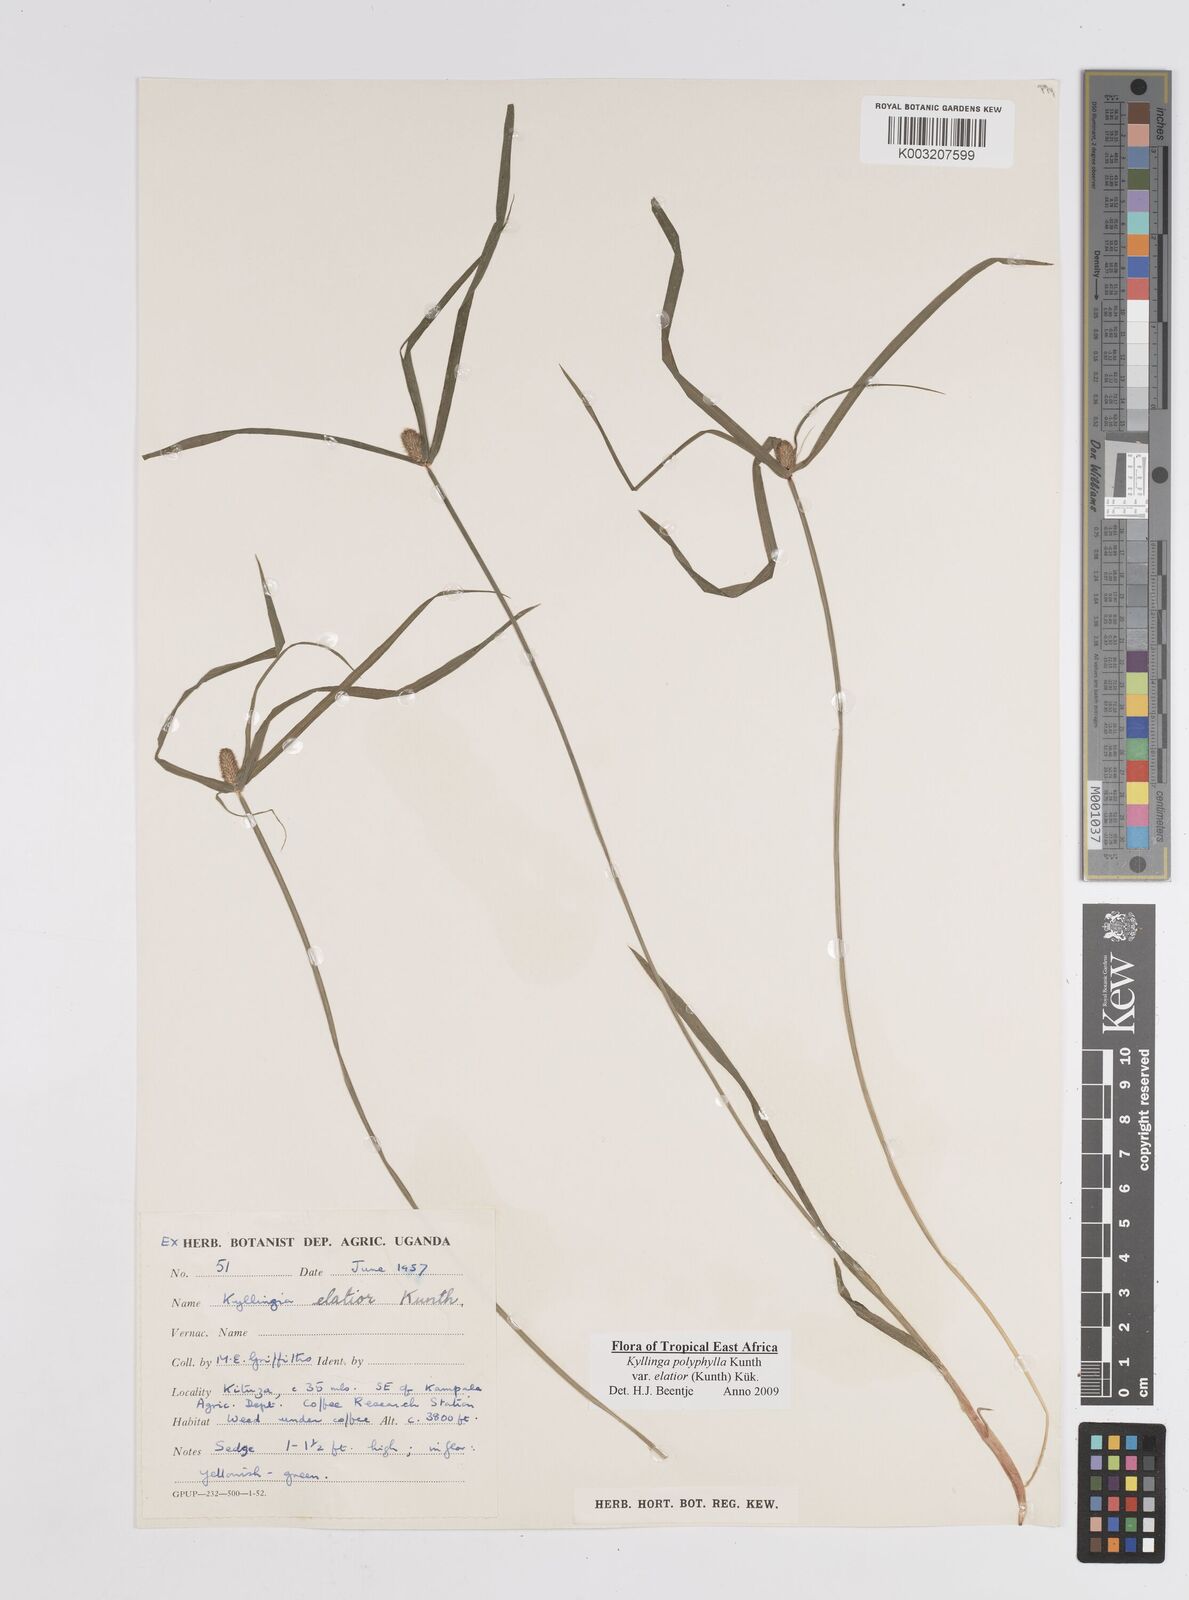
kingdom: Plantae
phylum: Tracheophyta
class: Liliopsida
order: Poales
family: Cyperaceae
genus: Cyperus
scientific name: Cyperus
